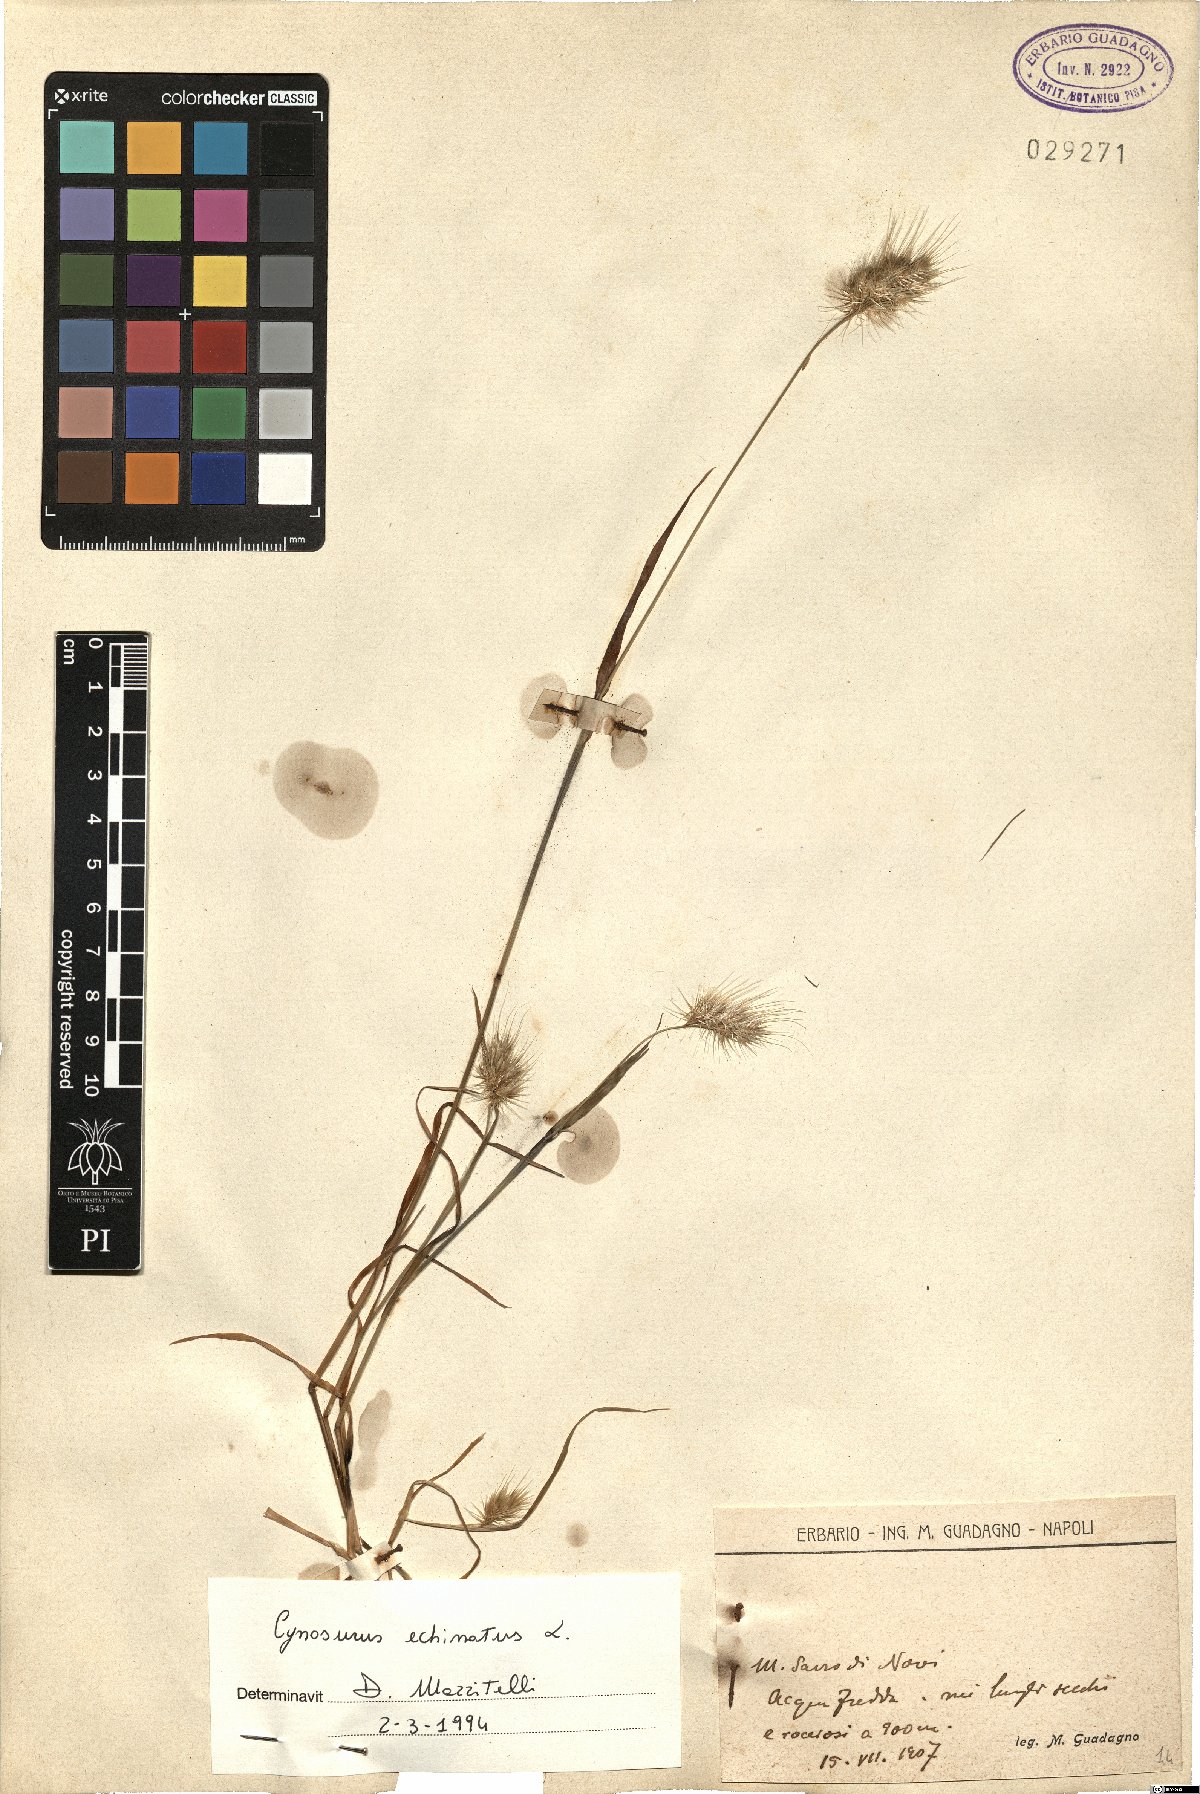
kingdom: Plantae
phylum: Tracheophyta
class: Liliopsida
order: Poales
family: Poaceae
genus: Cynosurus
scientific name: Cynosurus echinatus
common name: Rough dog's-tail
